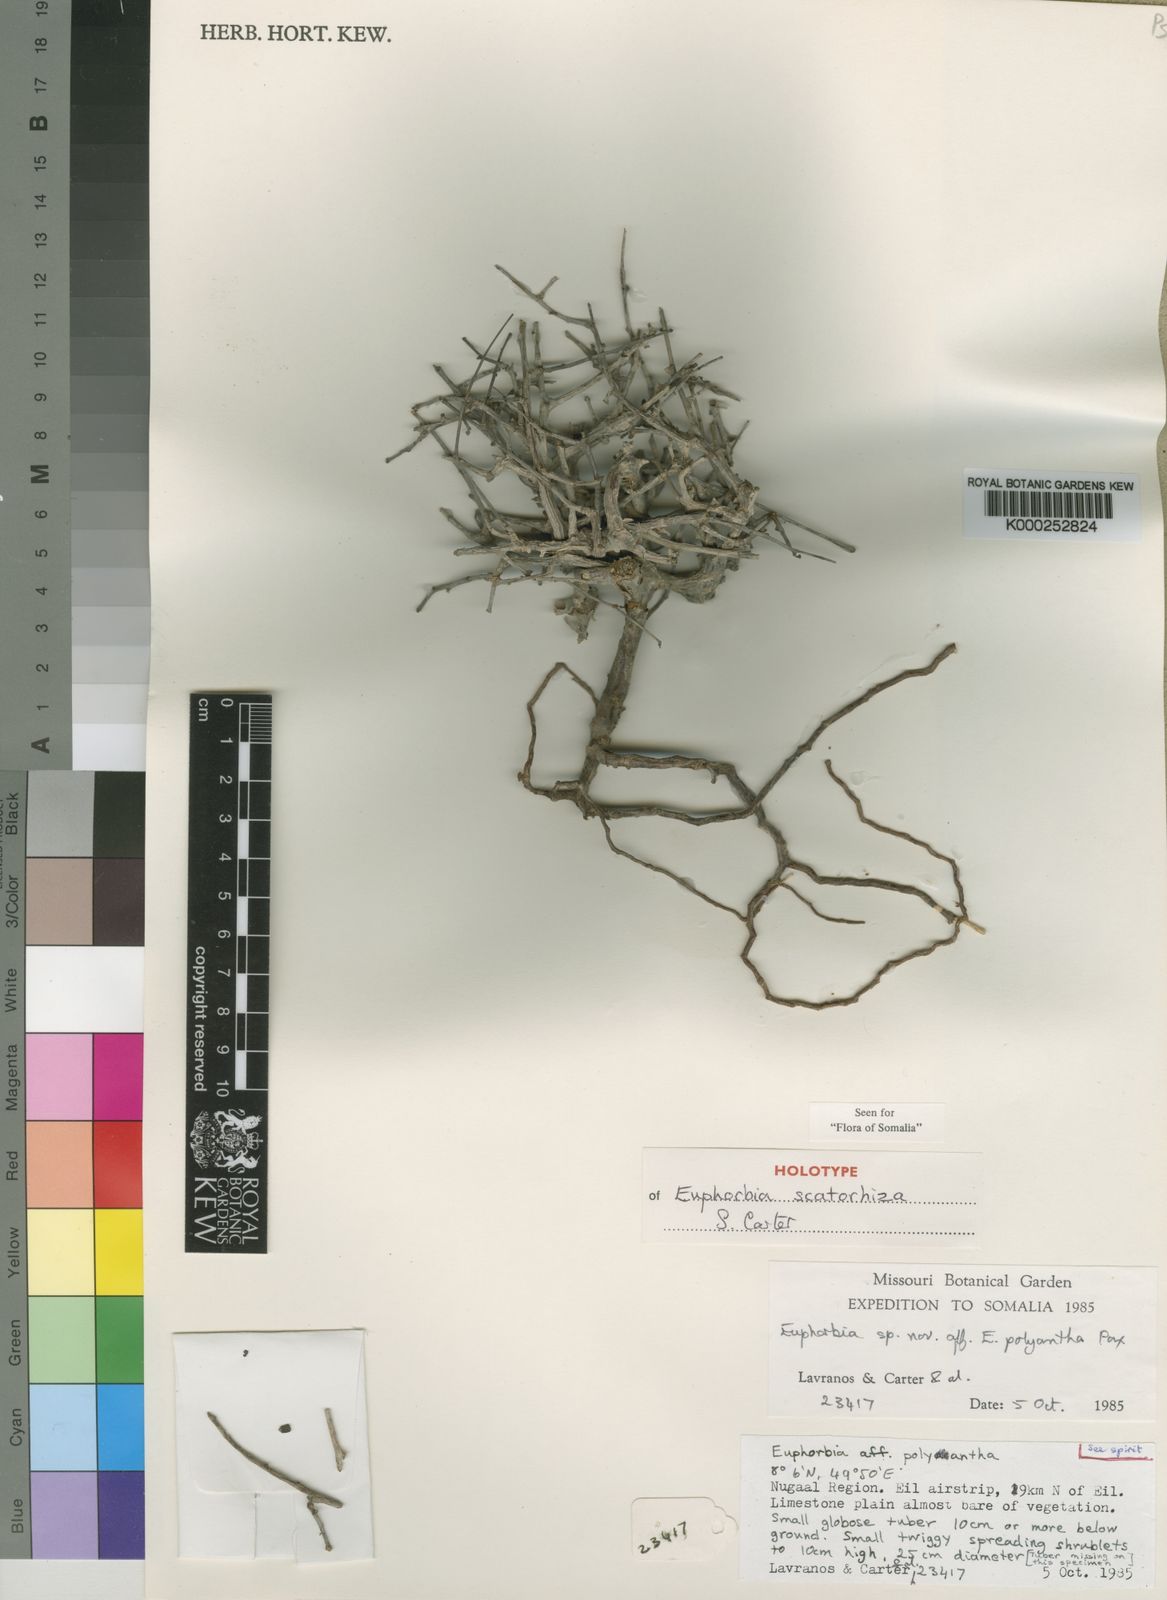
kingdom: Plantae
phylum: Tracheophyta
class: Magnoliopsida
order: Malpighiales
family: Euphorbiaceae
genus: Euphorbia
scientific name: Euphorbia scatorhiza
